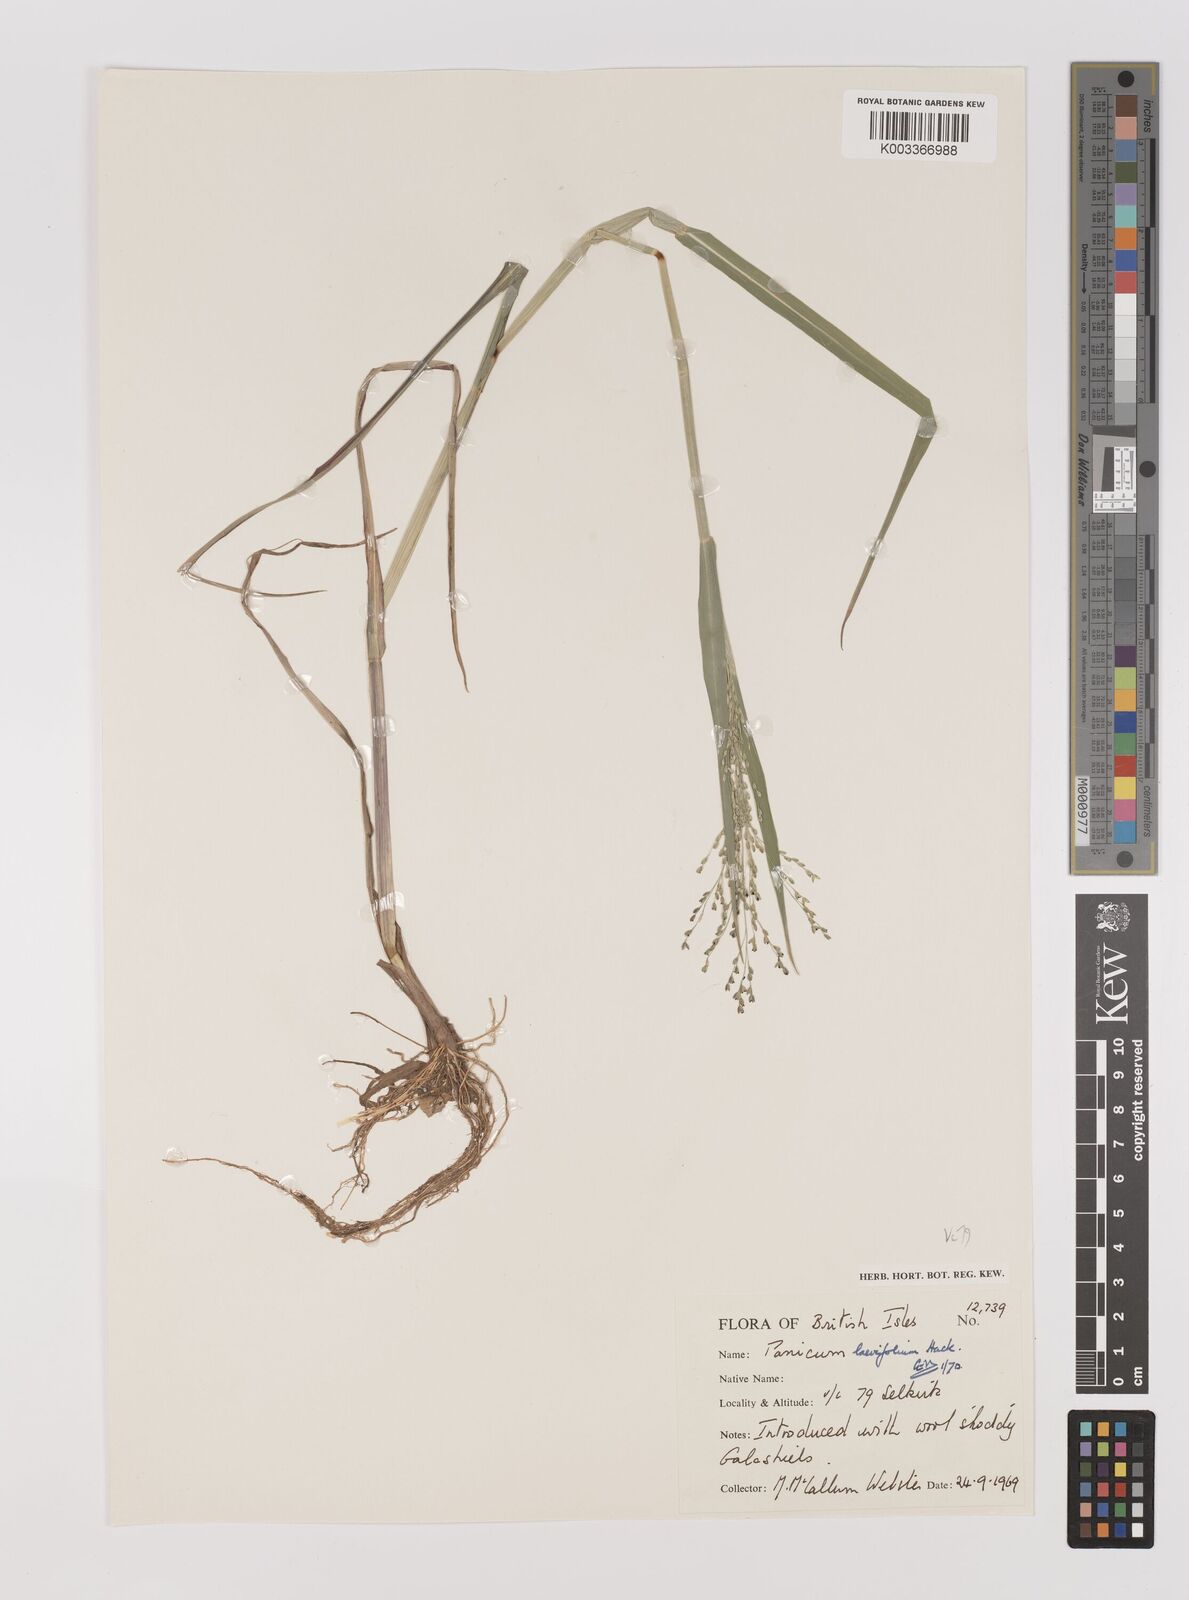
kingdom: Plantae
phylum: Tracheophyta
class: Liliopsida
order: Poales
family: Poaceae
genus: Panicum
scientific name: Panicum schinzii
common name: Sweet grass
